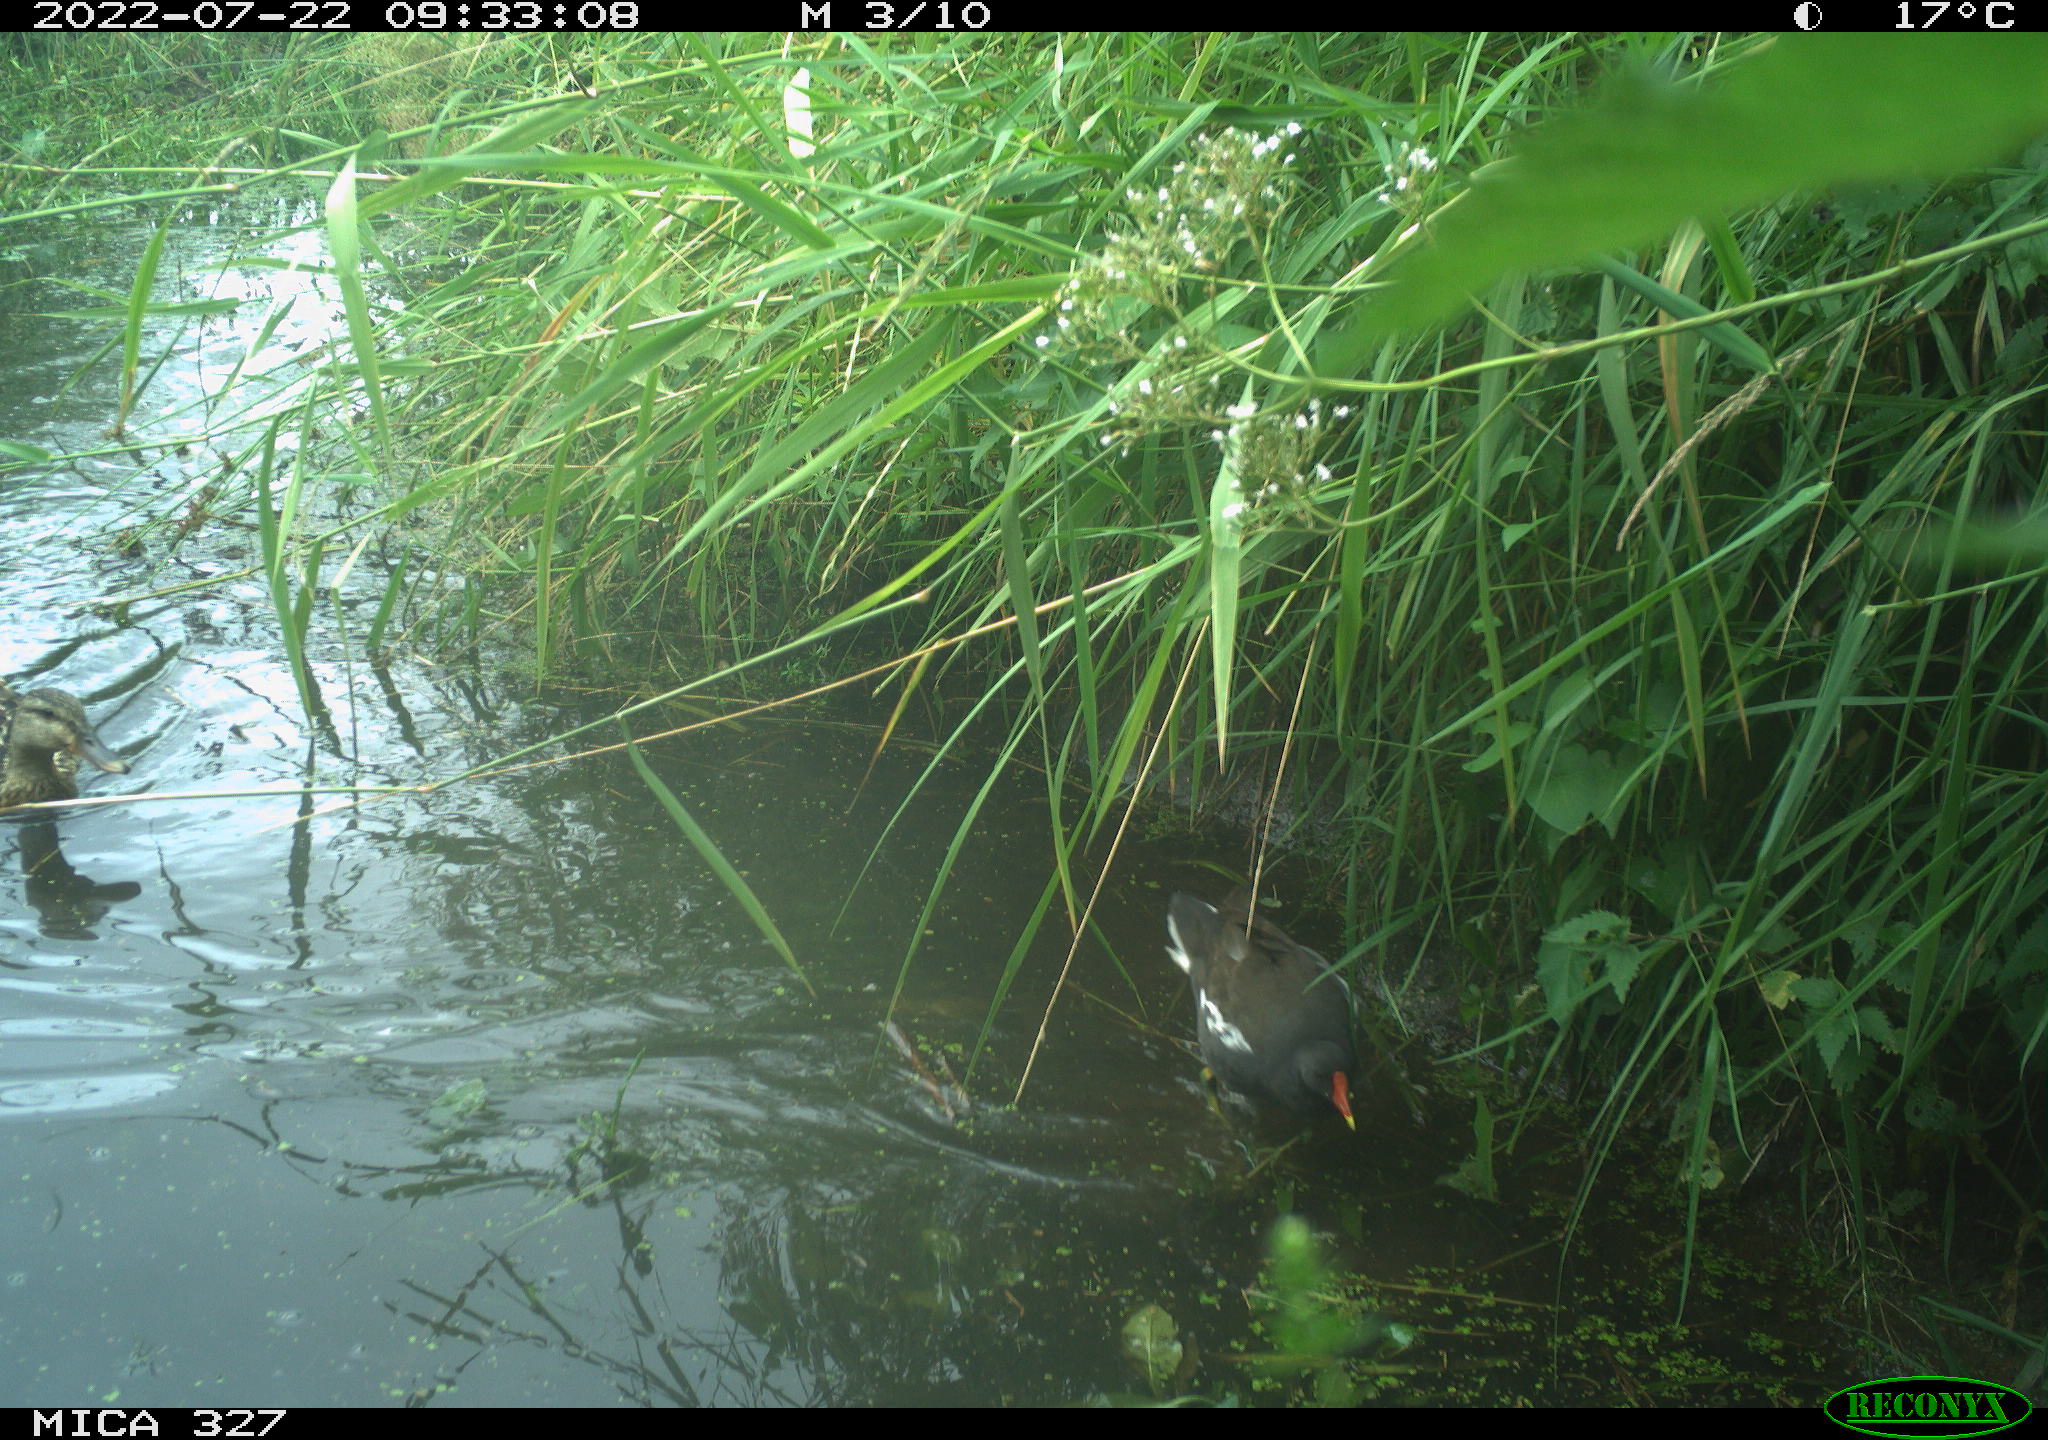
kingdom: Animalia
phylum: Chordata
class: Aves
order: Anseriformes
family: Anatidae
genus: Anas
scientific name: Anas
